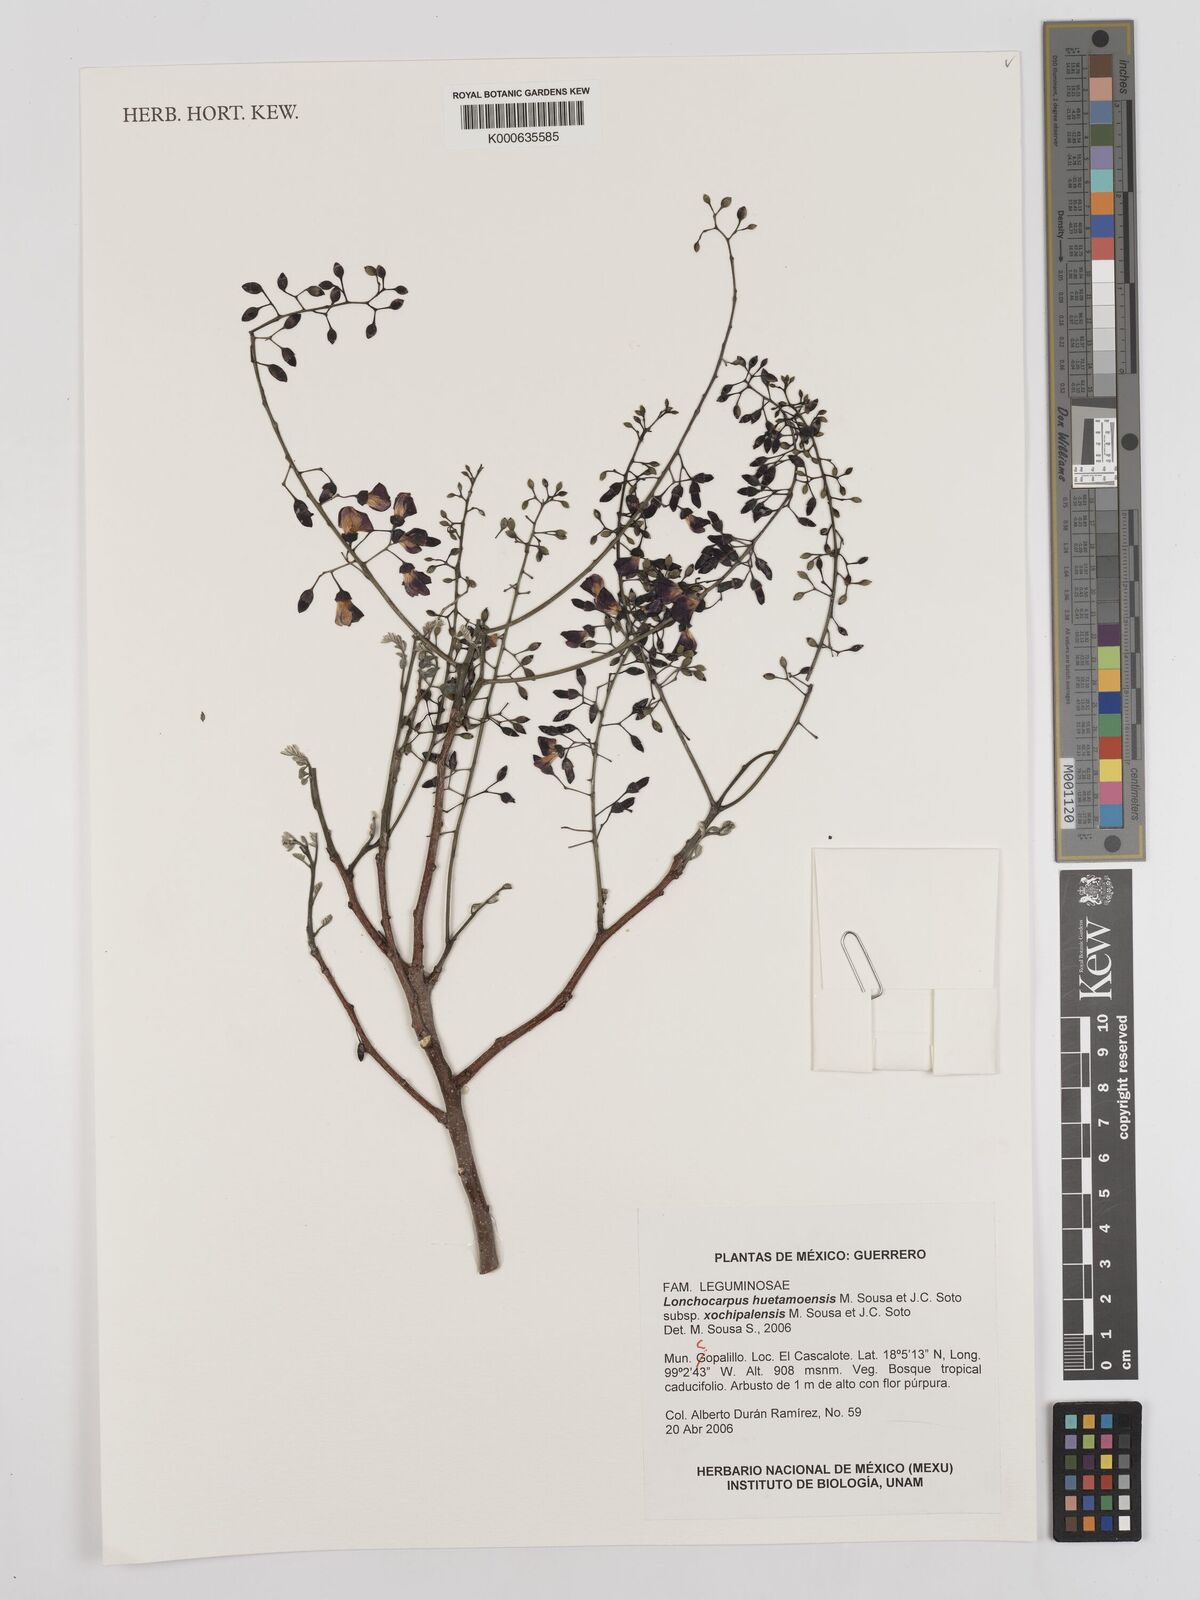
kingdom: Plantae
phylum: Tracheophyta
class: Magnoliopsida
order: Fabales
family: Fabaceae
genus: Lonchocarpus
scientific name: Lonchocarpus huetamoensis
